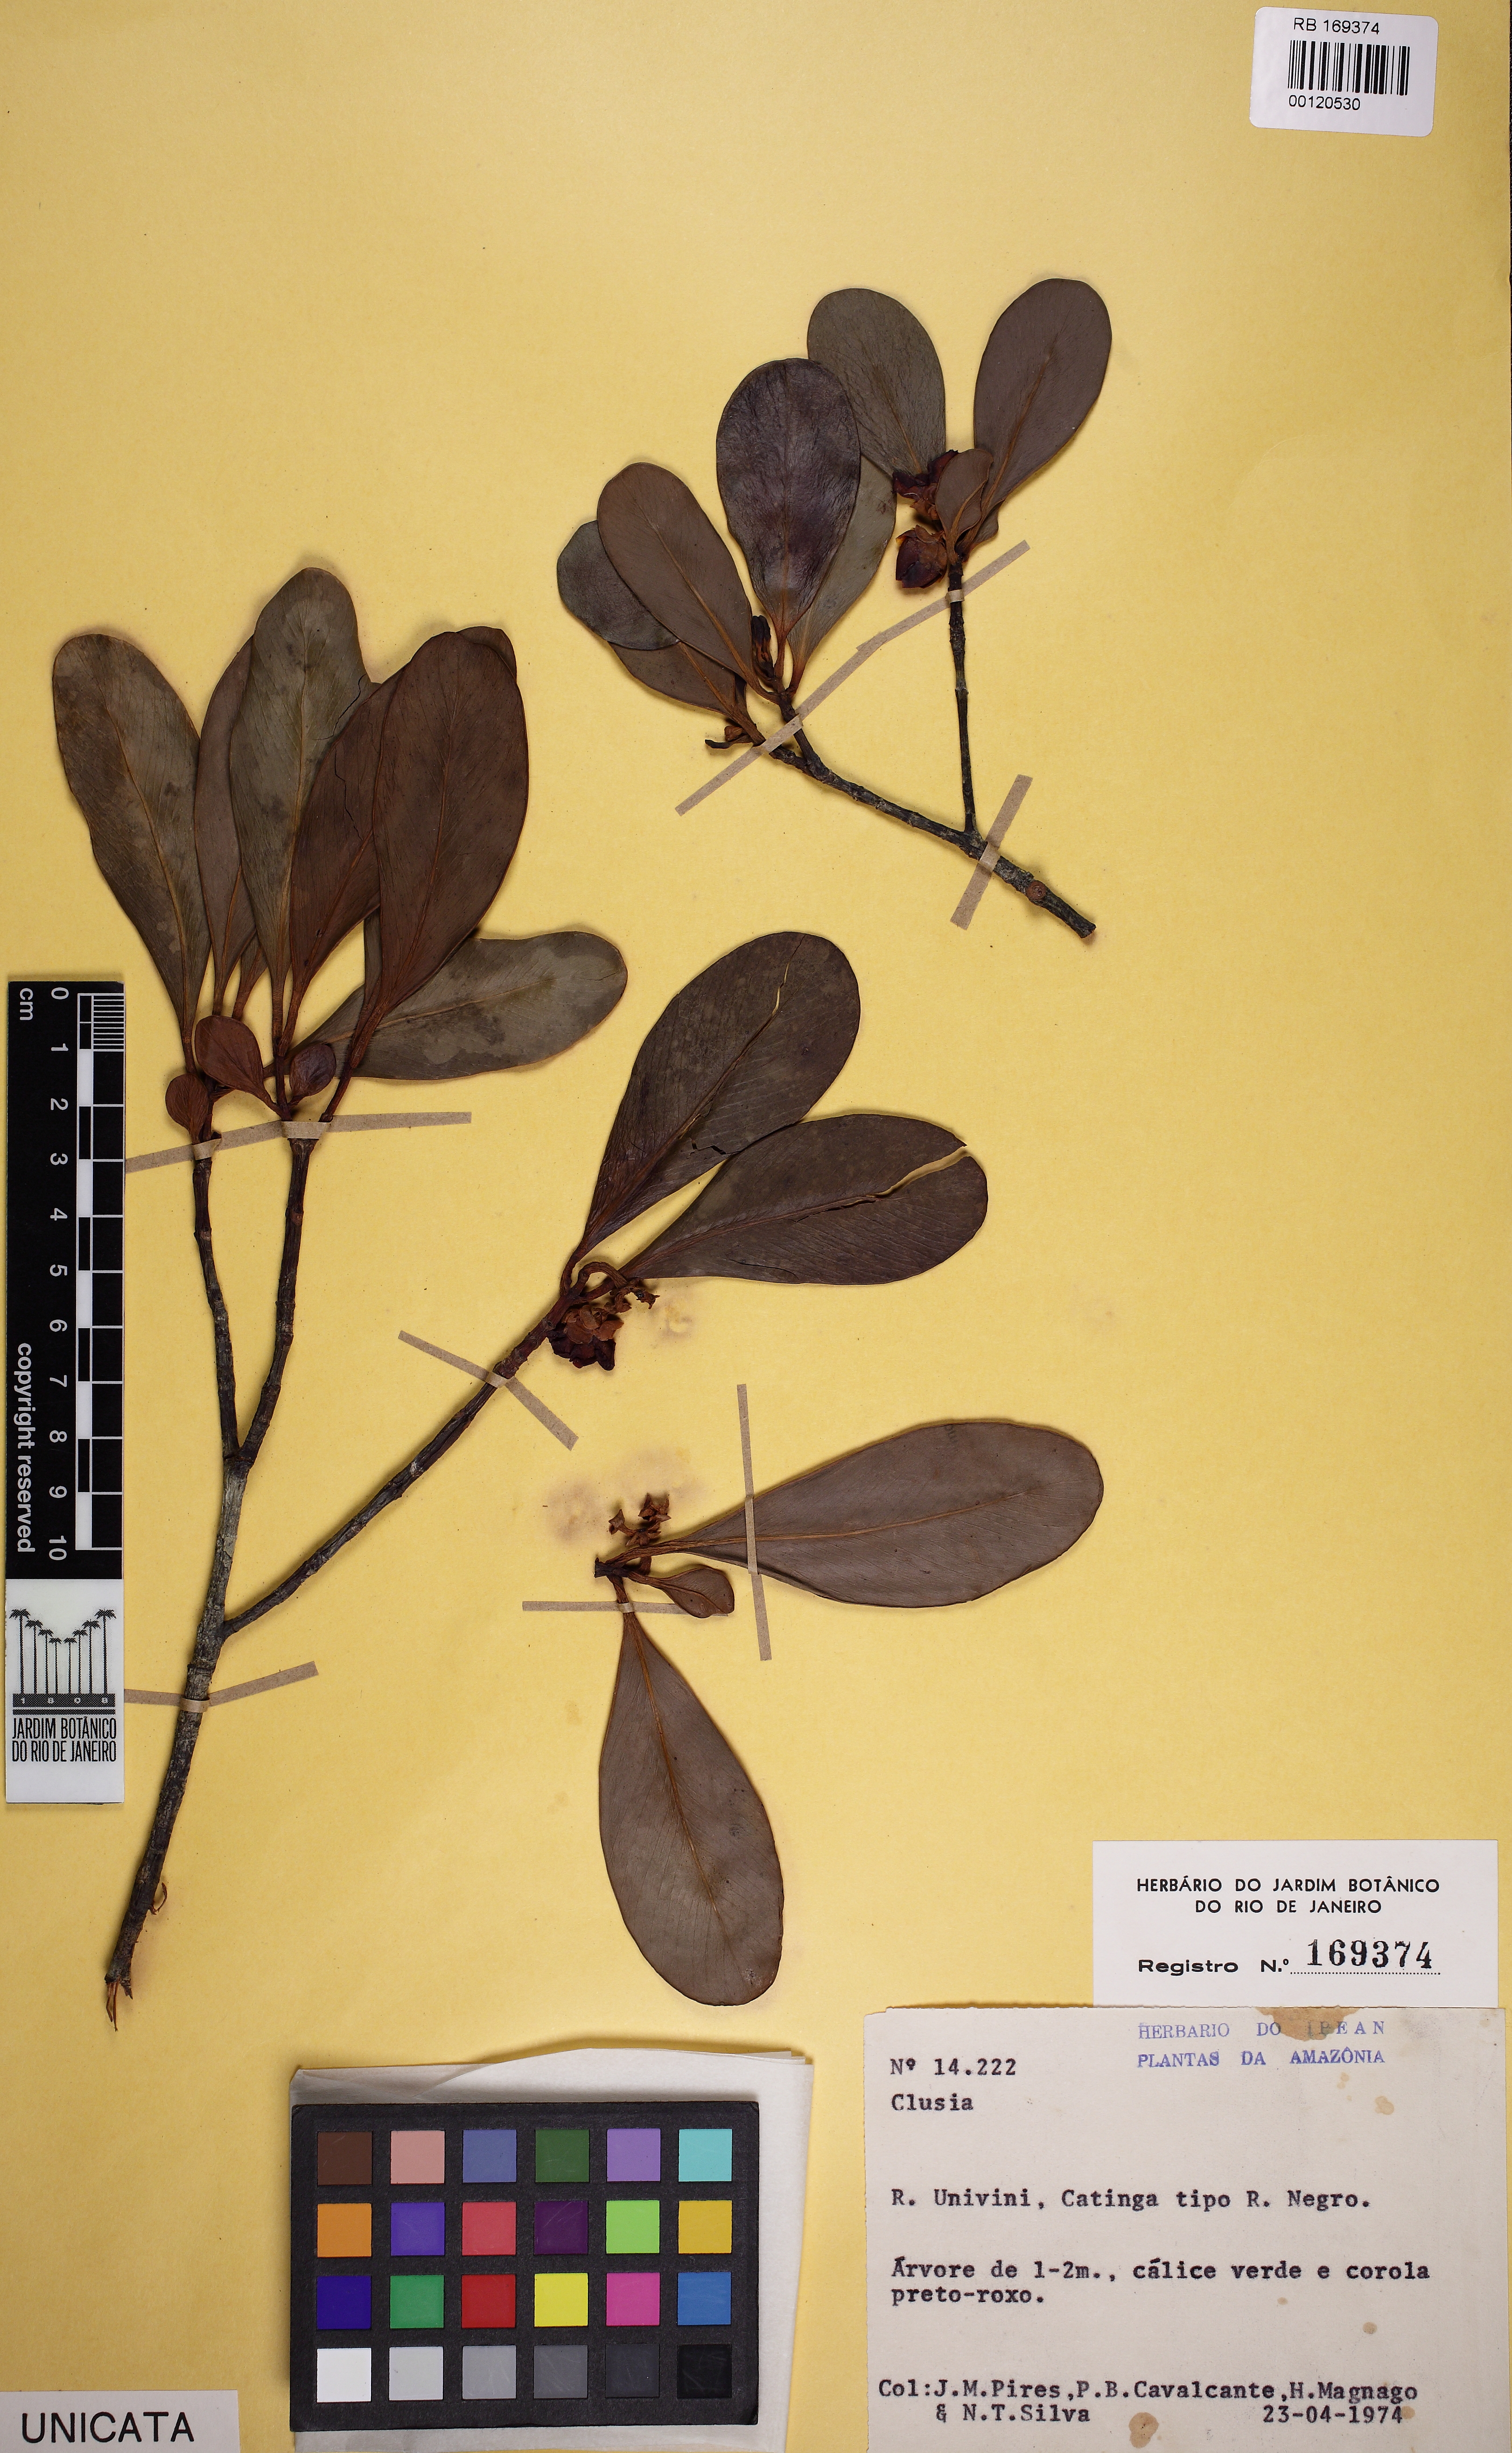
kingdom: Plantae
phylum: Tracheophyta
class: Magnoliopsida
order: Malpighiales
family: Clusiaceae
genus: Clusia
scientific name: Clusia nitida
